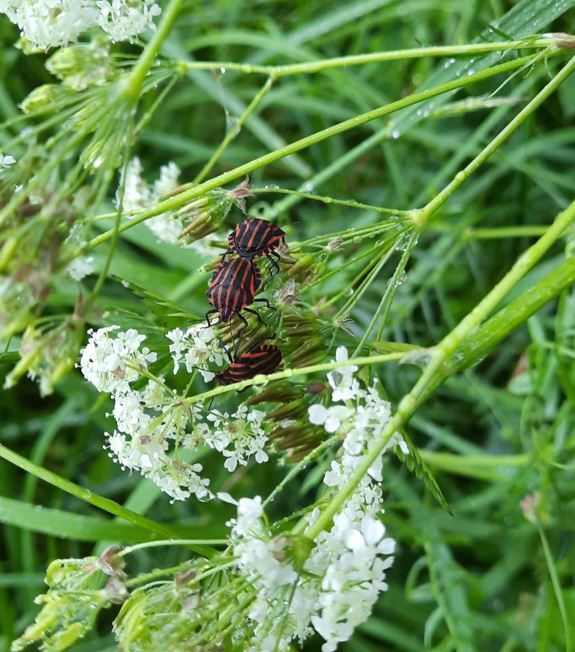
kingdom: Animalia
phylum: Arthropoda
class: Insecta
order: Hemiptera
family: Pentatomidae
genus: Graphosoma
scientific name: Graphosoma italicum
